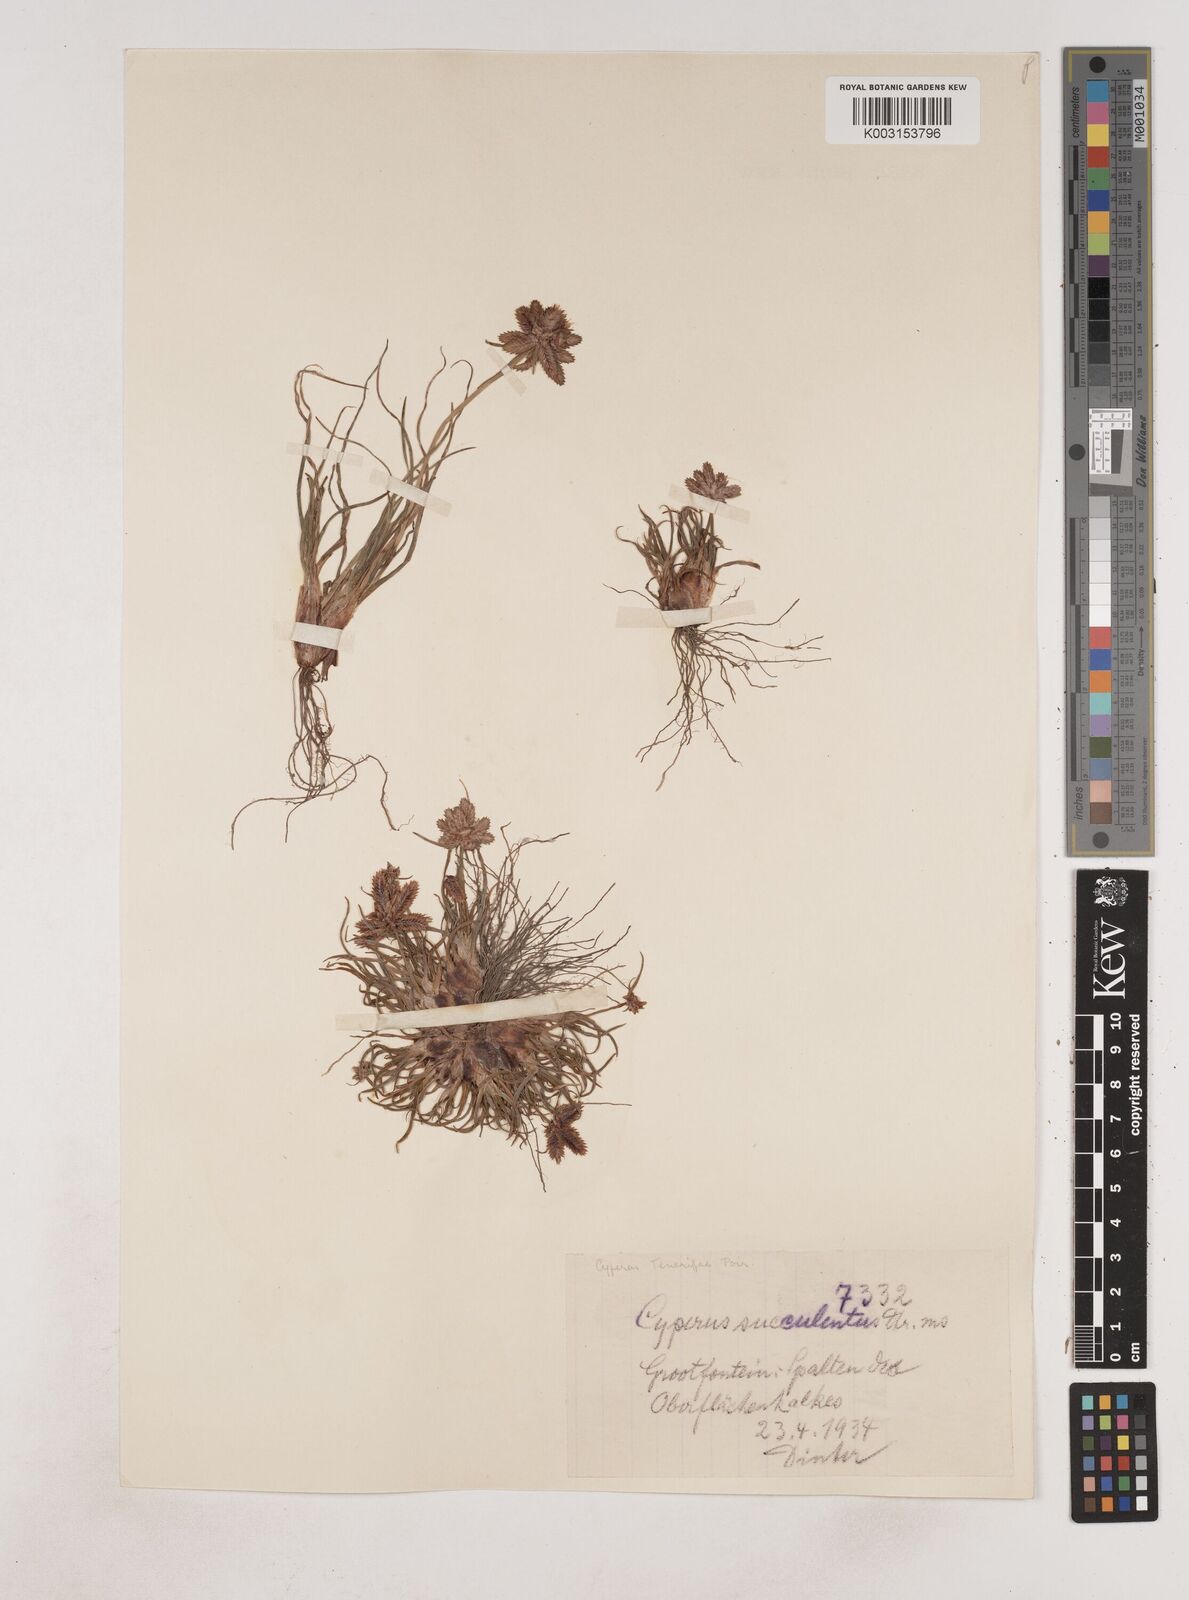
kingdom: Plantae
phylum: Tracheophyta
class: Liliopsida
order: Poales
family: Cyperaceae
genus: Cyperus
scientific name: Cyperus rubicundus
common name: Coco-grass
